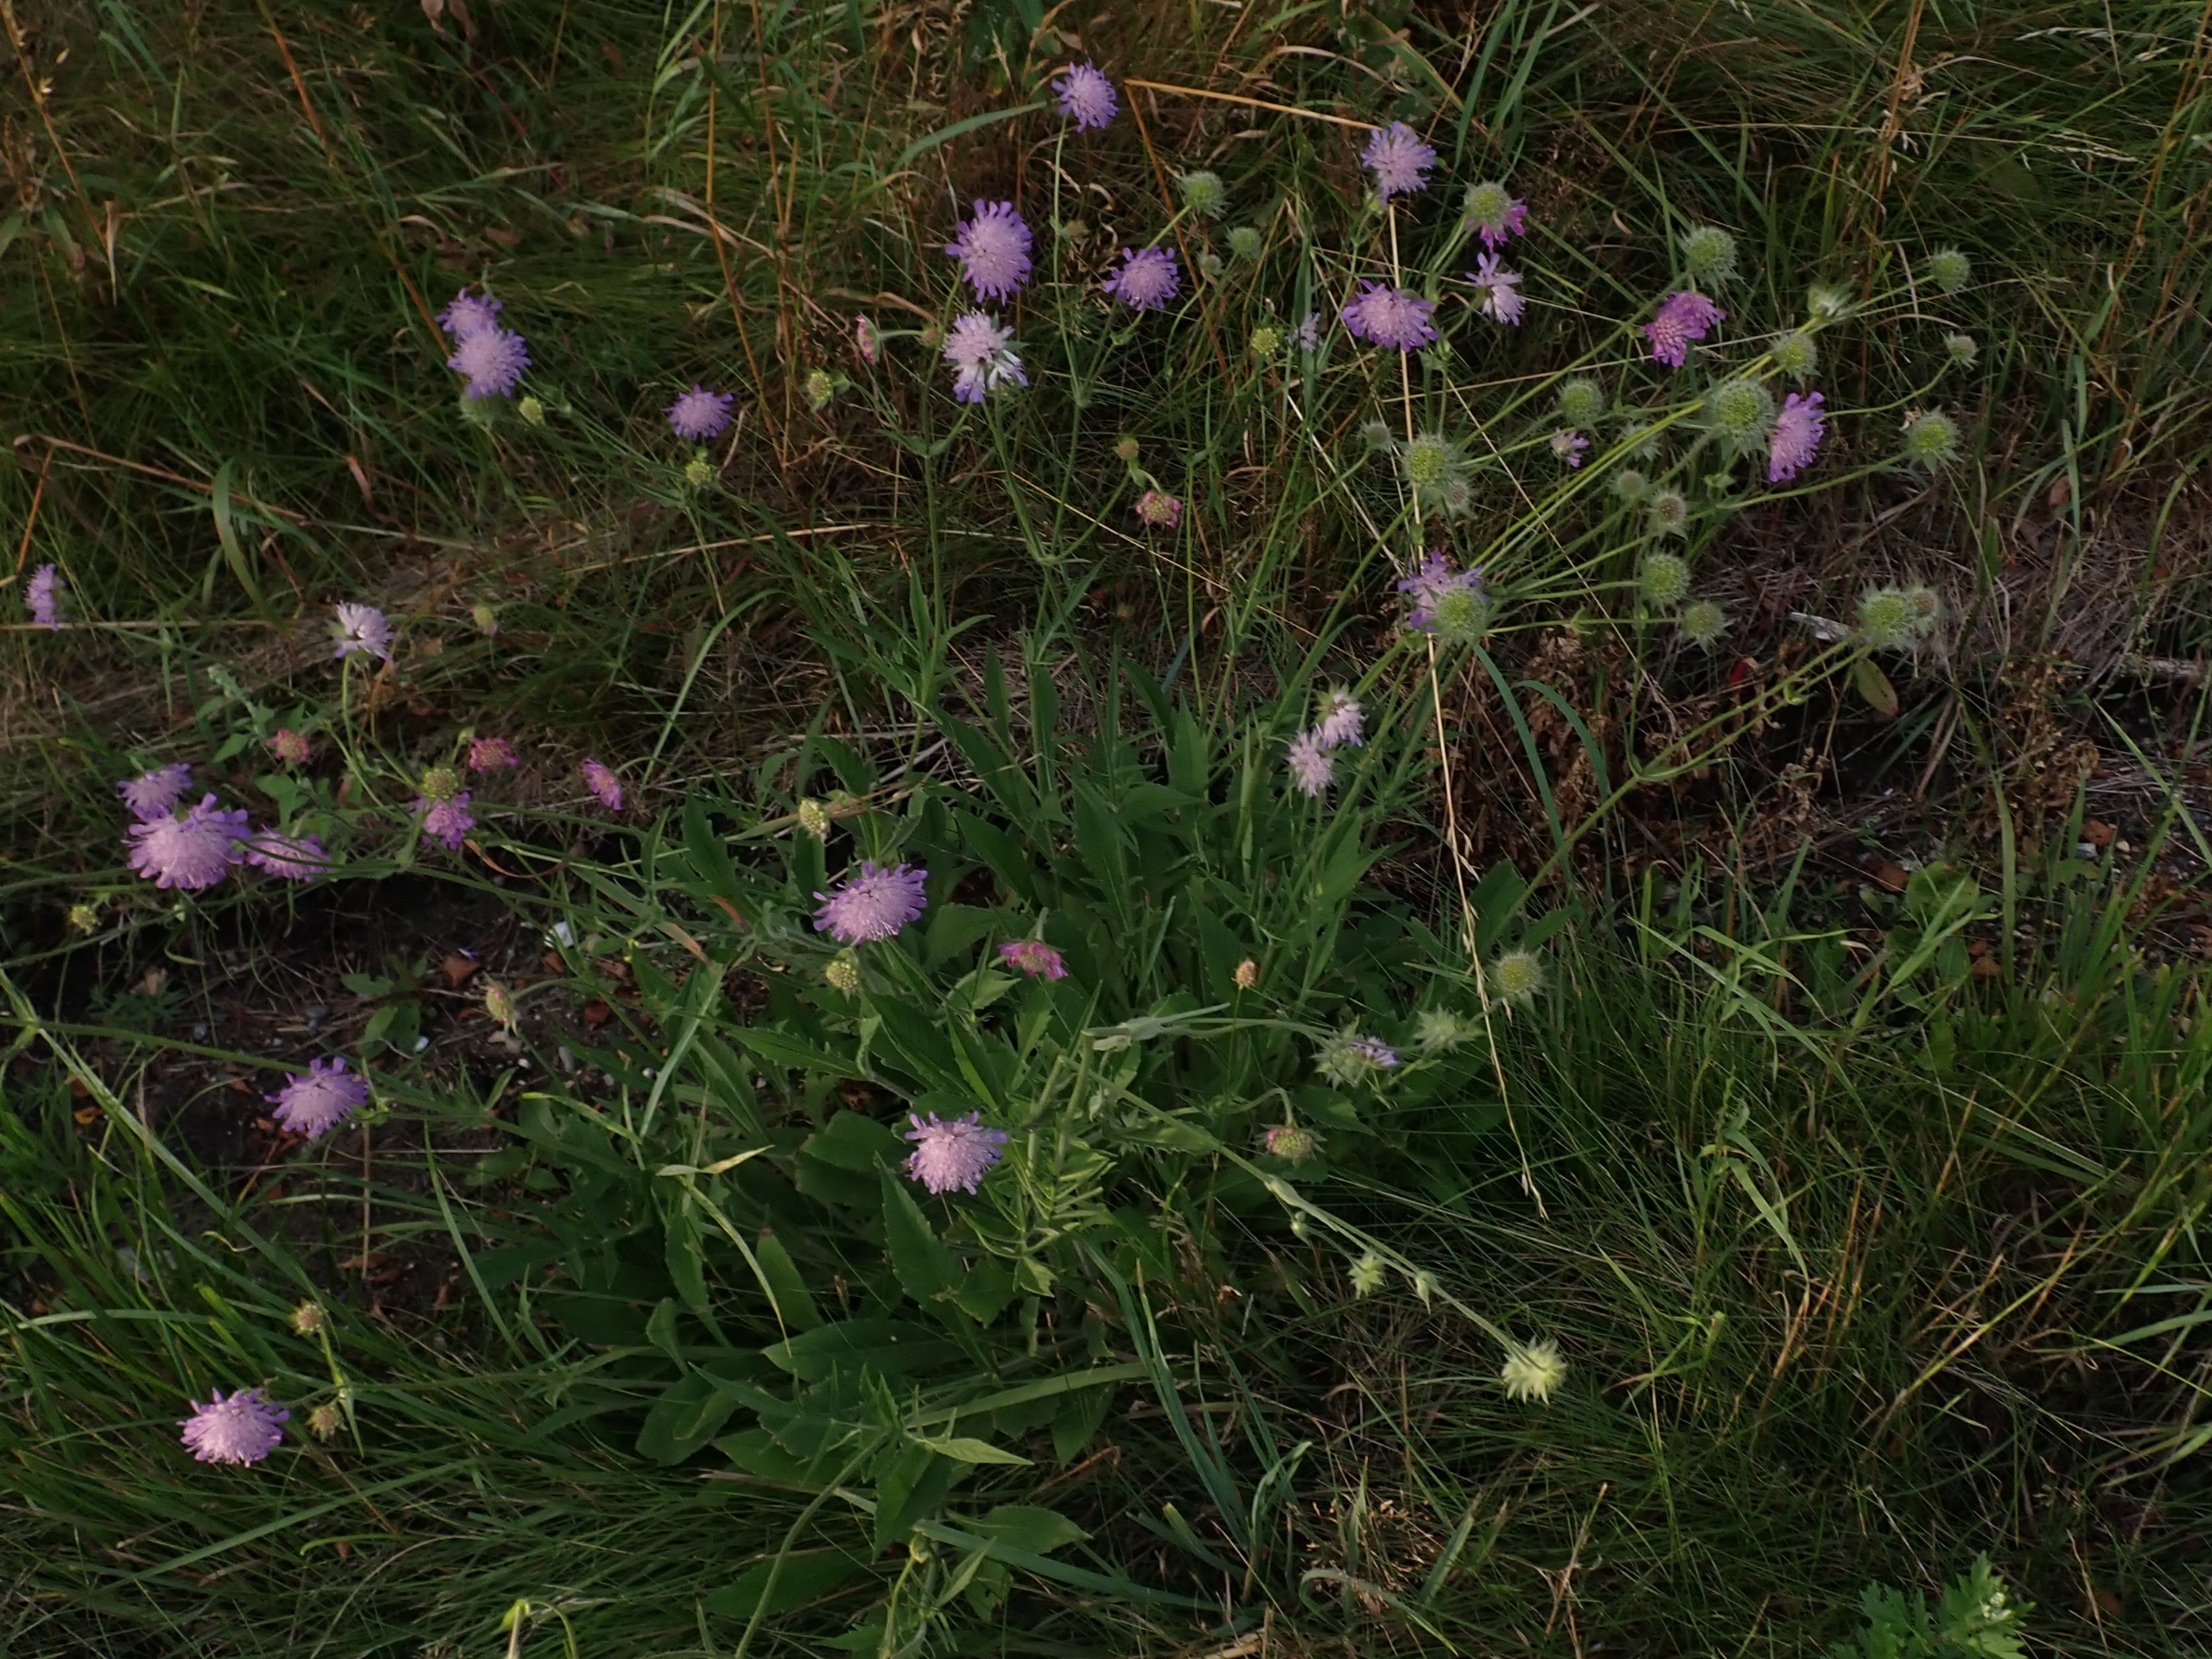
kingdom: Plantae
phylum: Tracheophyta
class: Magnoliopsida
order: Dipsacales
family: Caprifoliaceae
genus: Knautia
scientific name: Knautia arvensis
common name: Blåhat
